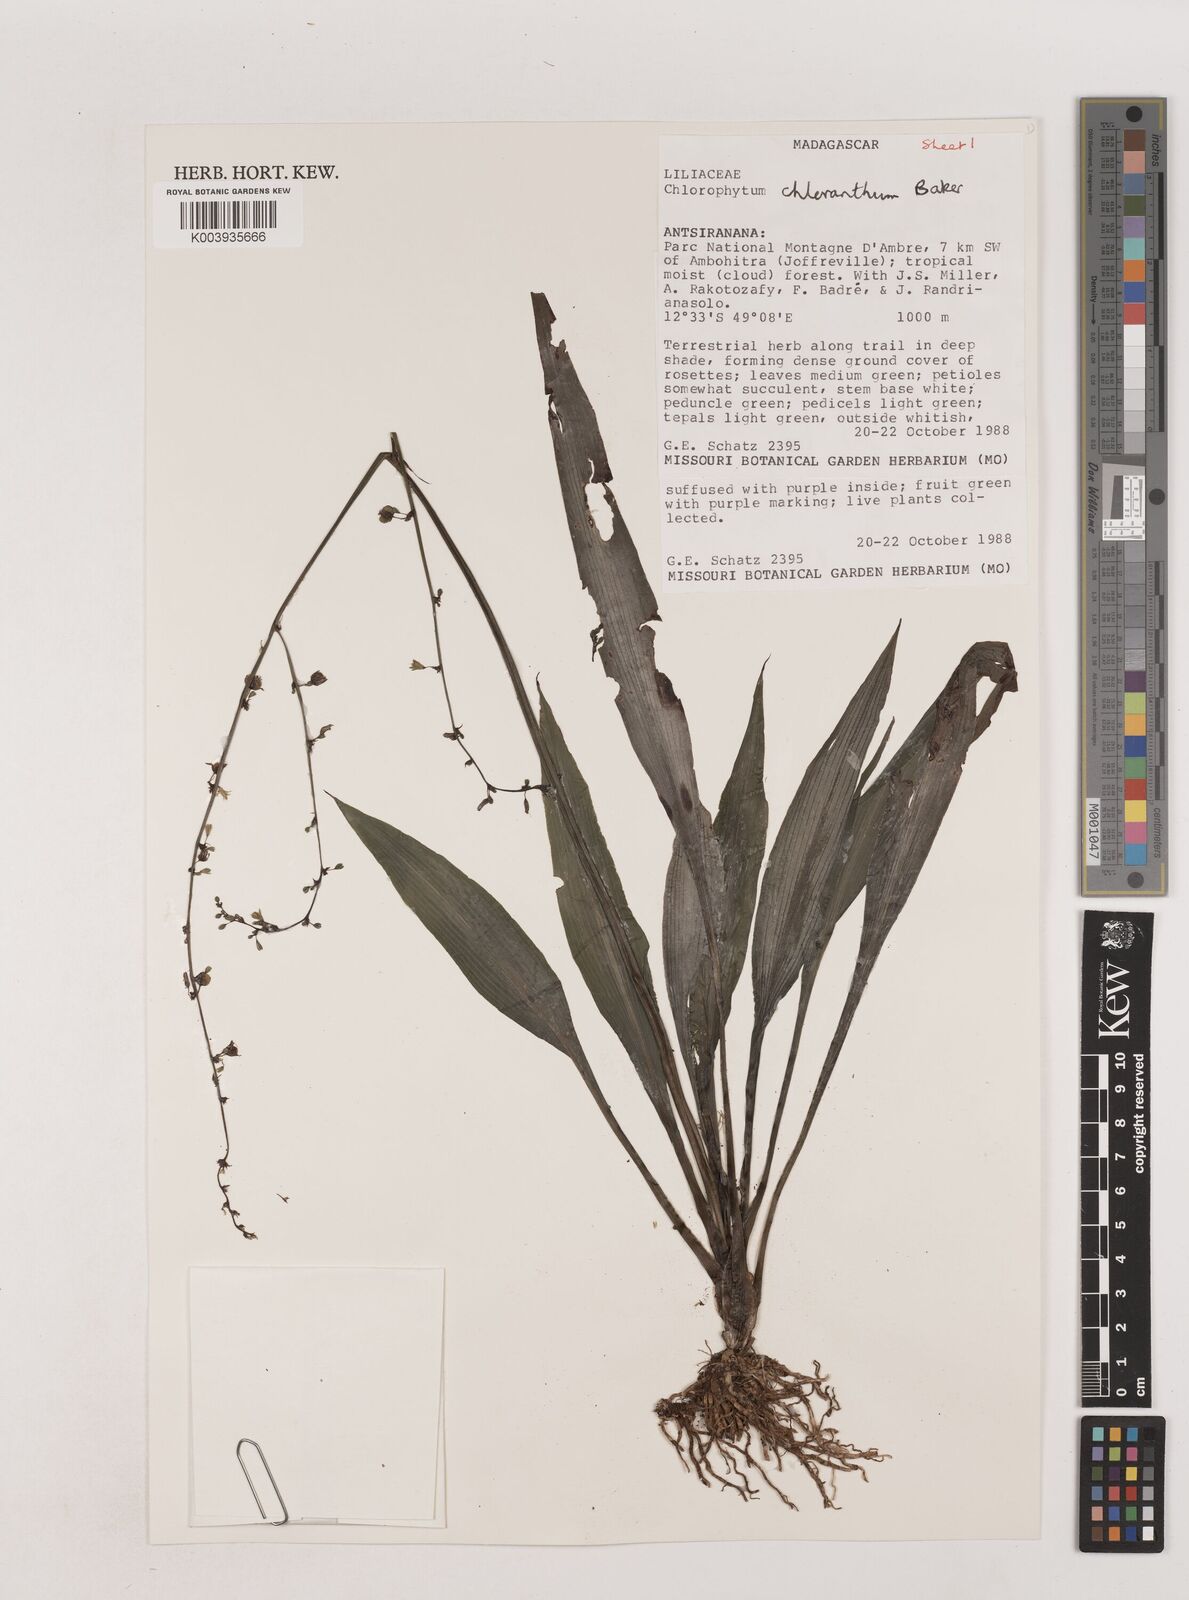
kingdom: Plantae
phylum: Tracheophyta
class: Liliopsida
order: Asparagales
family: Asparagaceae
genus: Chlorophytum
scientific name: Chlorophytum chloranthum
